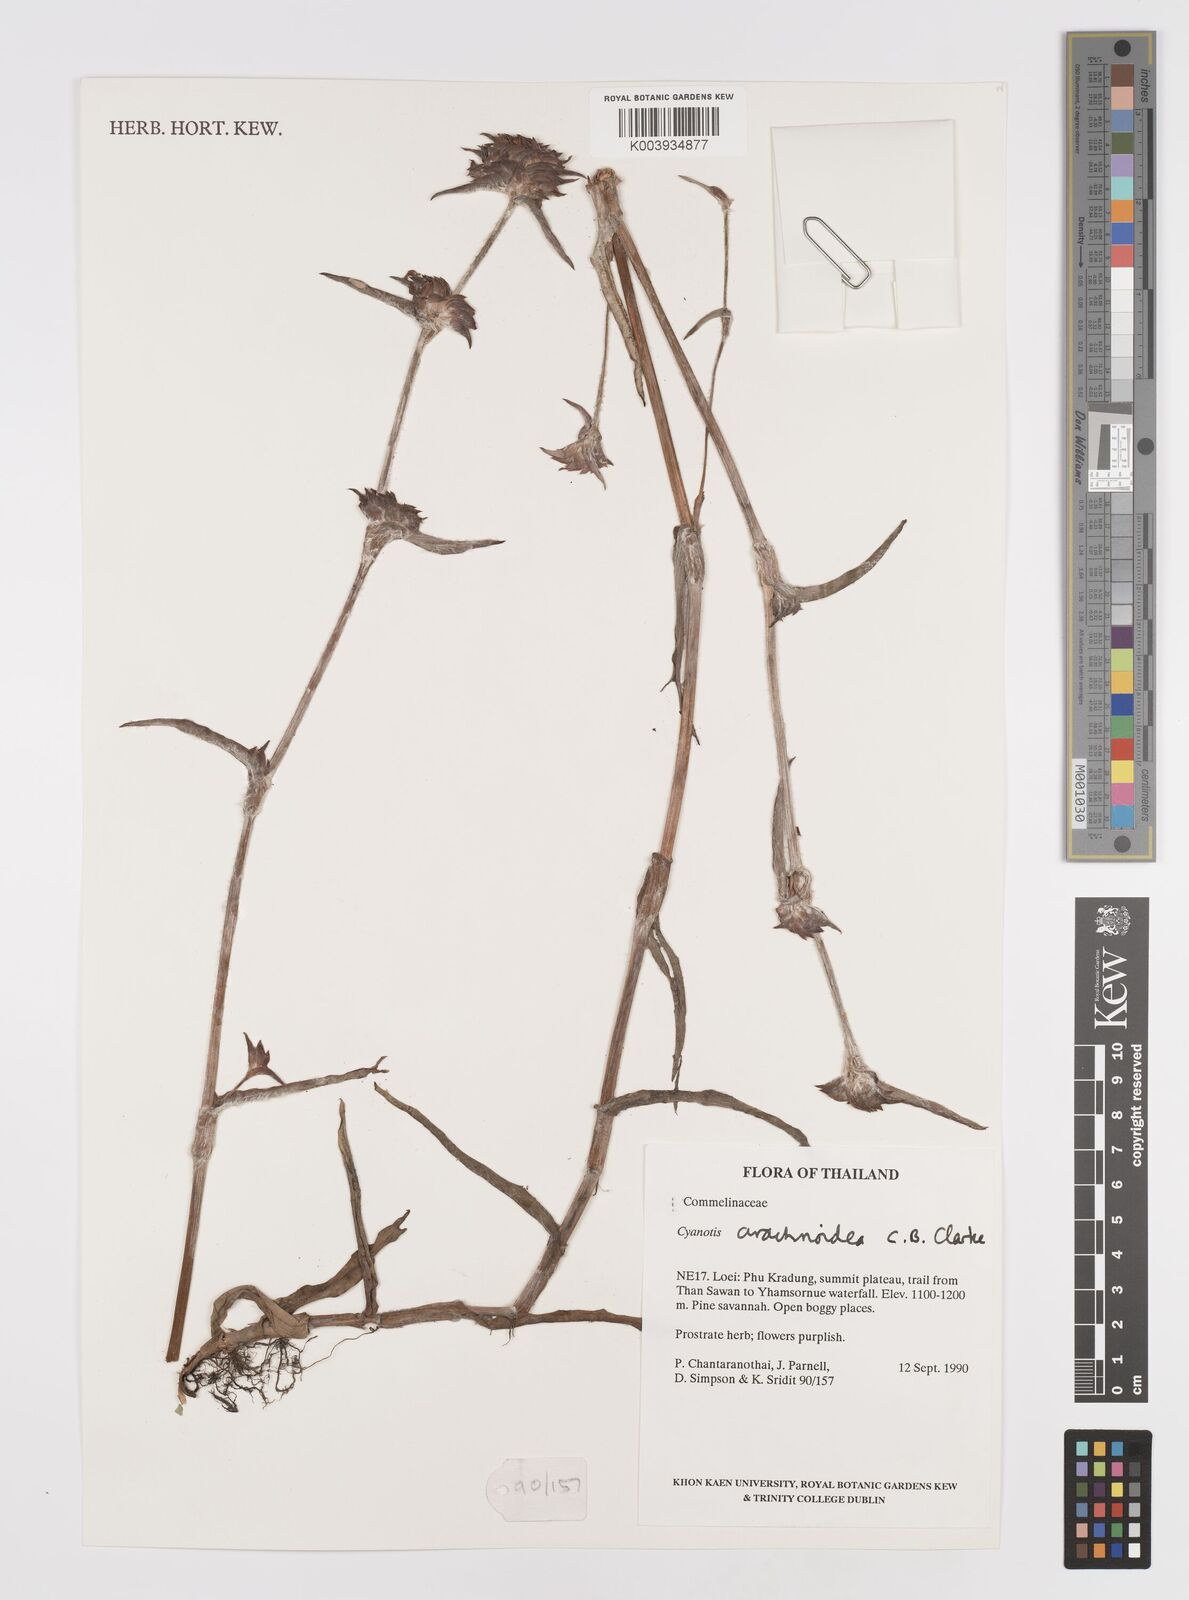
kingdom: Plantae
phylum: Tracheophyta
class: Liliopsida
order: Commelinales
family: Commelinaceae
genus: Cyanotis
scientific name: Cyanotis arachnoidea
